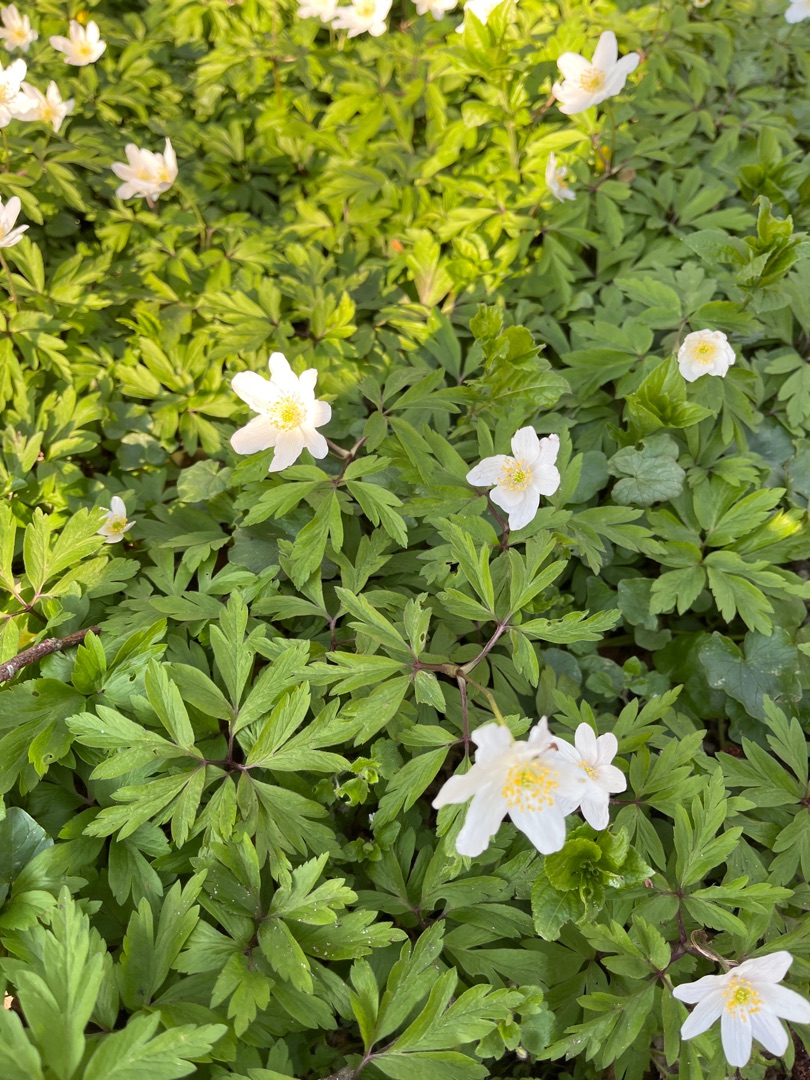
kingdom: Plantae
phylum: Tracheophyta
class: Magnoliopsida
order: Ranunculales
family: Ranunculaceae
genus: Anemone
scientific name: Anemone nemorosa
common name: Hvid anemone
